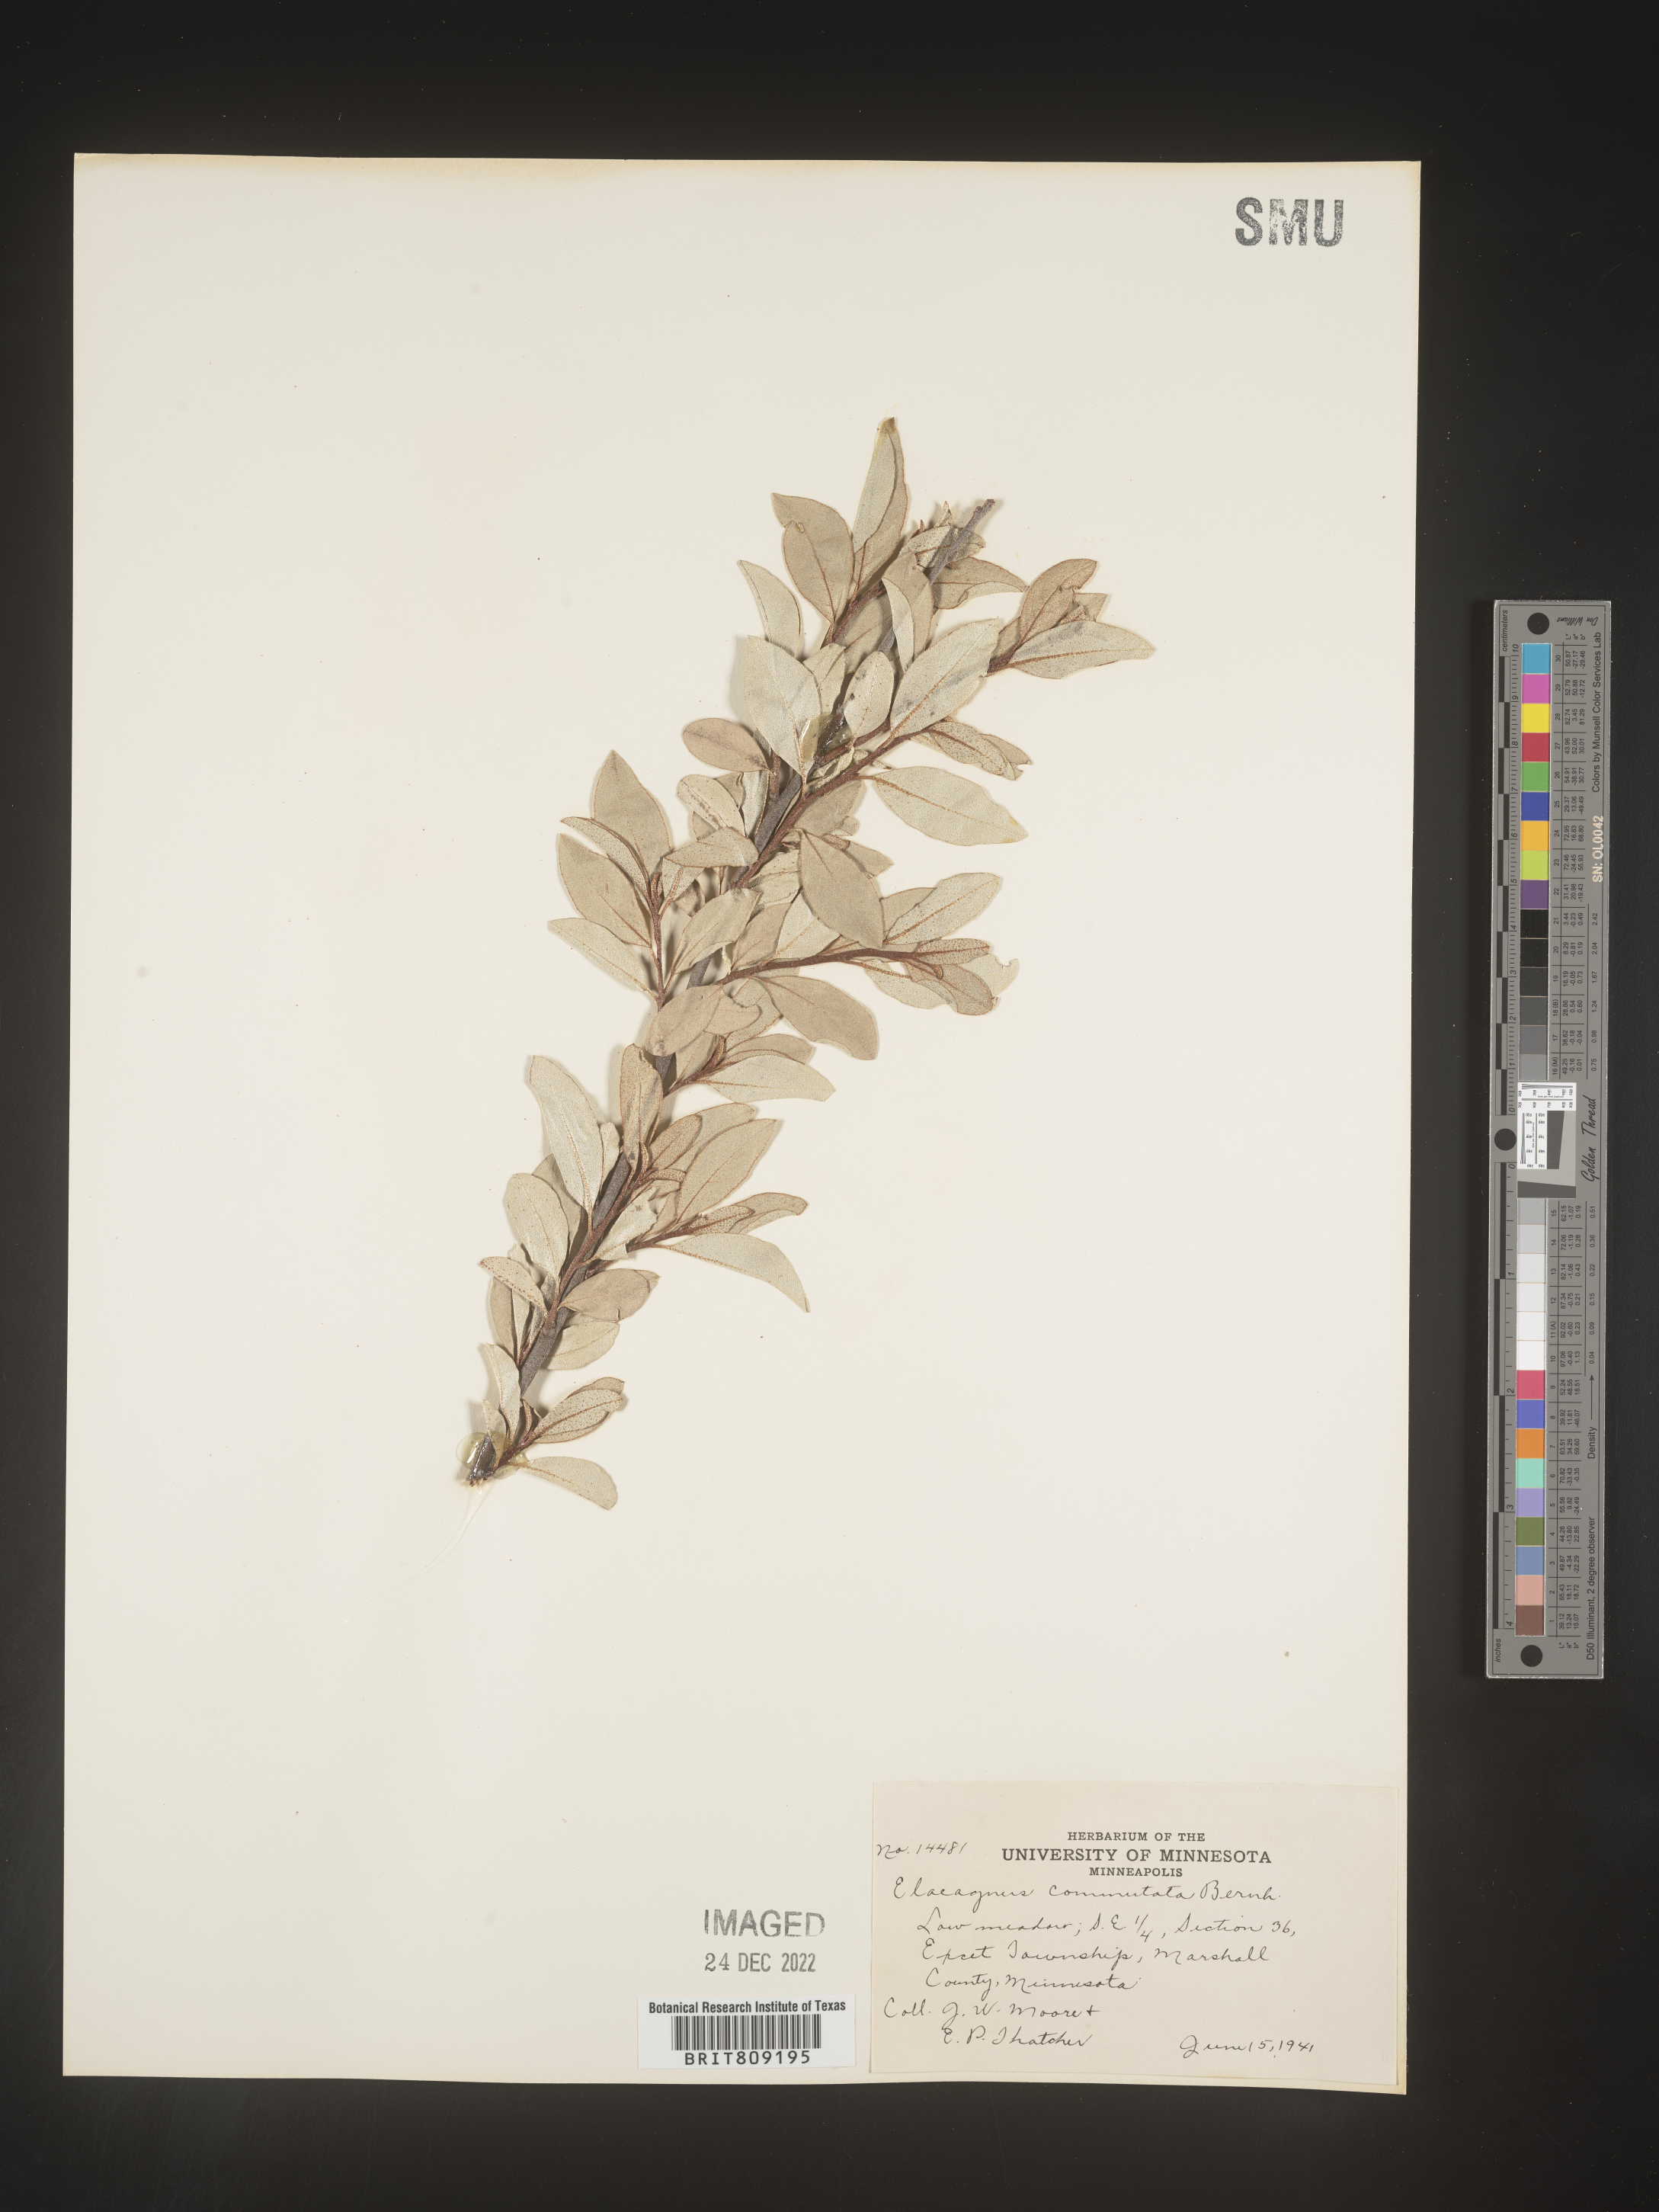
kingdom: Plantae
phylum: Tracheophyta
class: Magnoliopsida
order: Rosales
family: Elaeagnaceae
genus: Elaeagnus
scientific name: Elaeagnus
